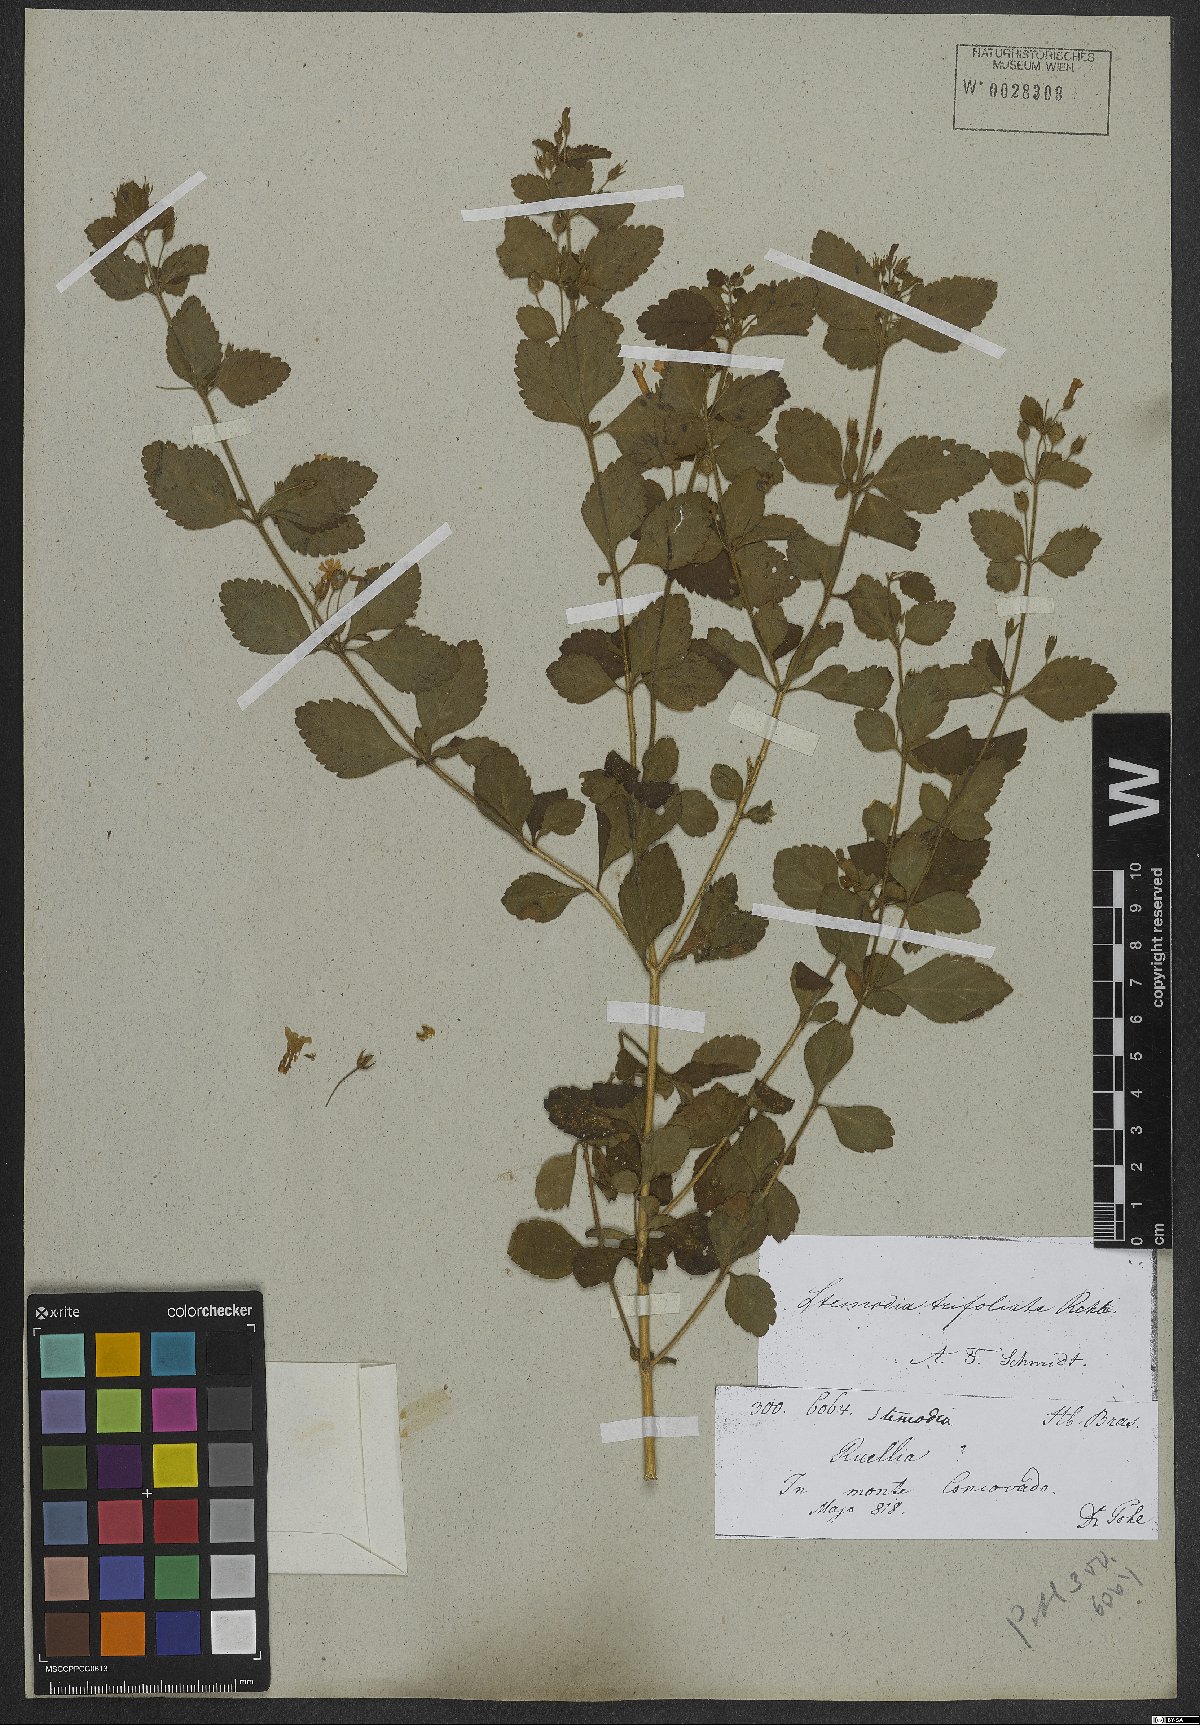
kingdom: Plantae
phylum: Tracheophyta
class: Magnoliopsida
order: Lamiales
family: Plantaginaceae
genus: Stemodia
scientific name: Stemodia trifoliata
